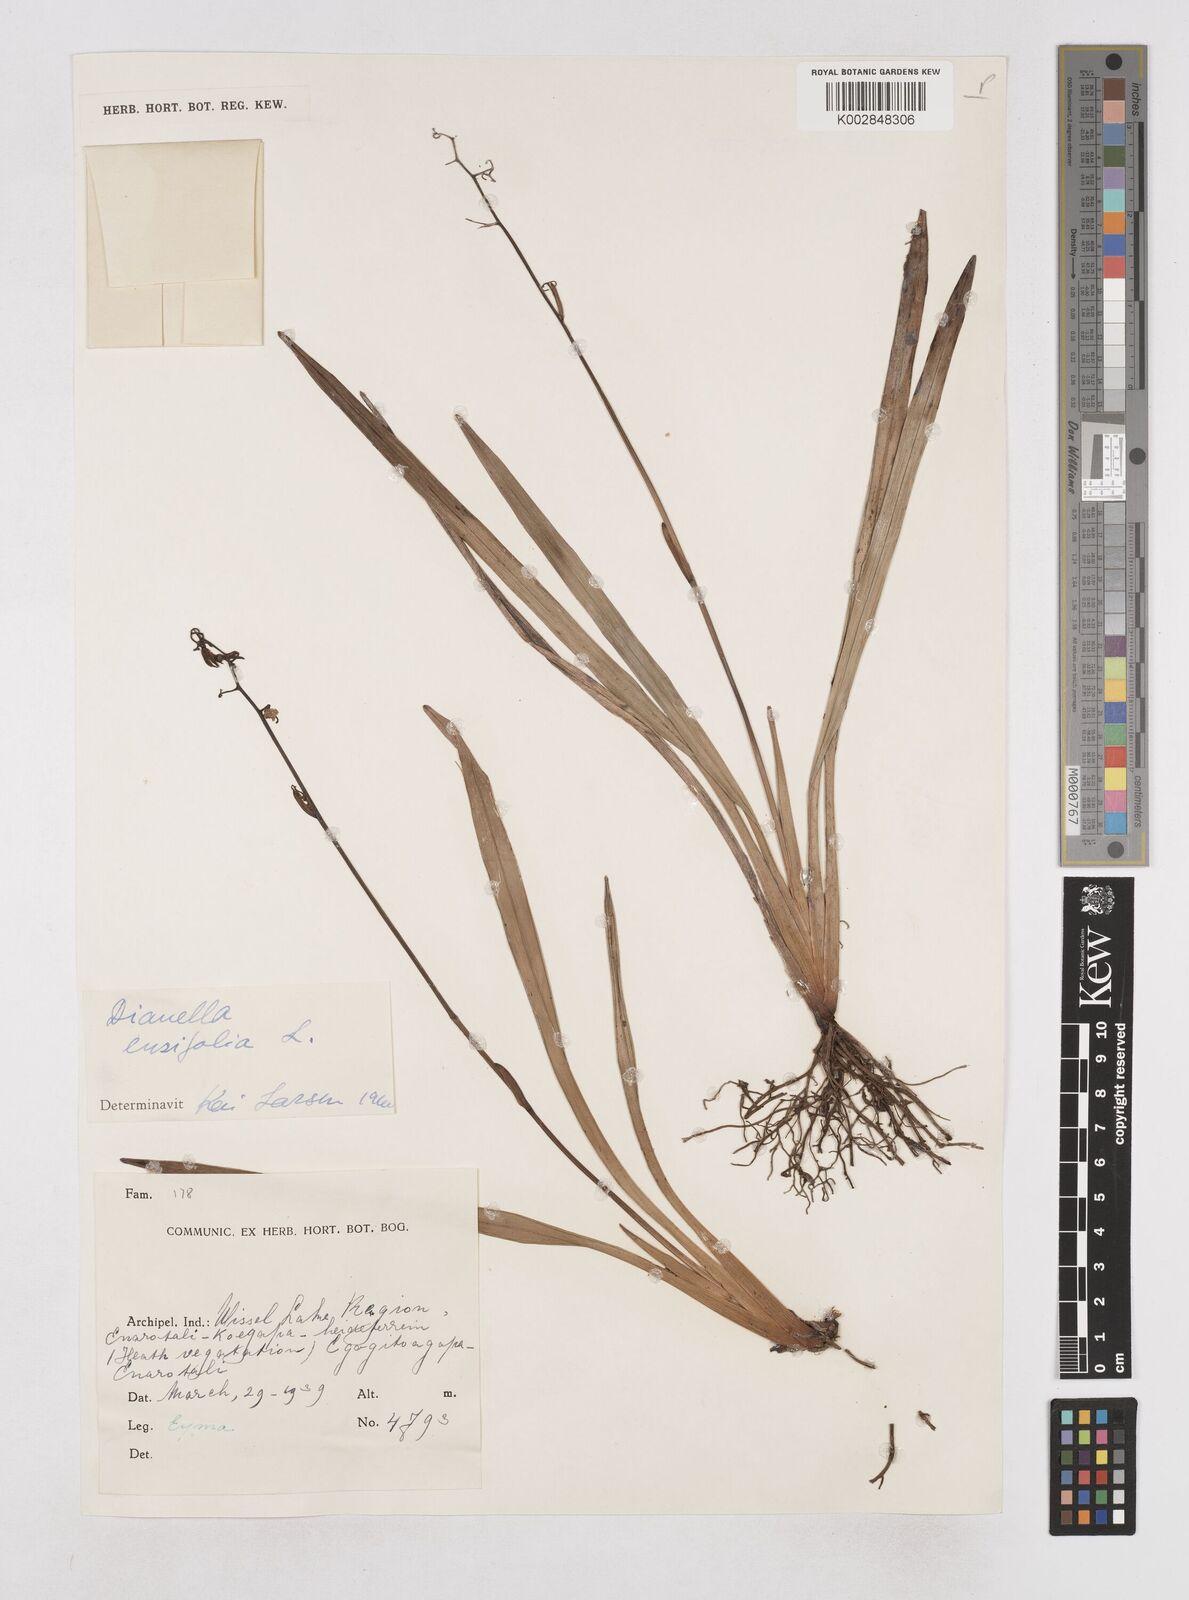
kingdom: Plantae
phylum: Tracheophyta
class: Liliopsida
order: Asparagales
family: Asphodelaceae
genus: Dianella
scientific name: Dianella ensifolia
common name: New zealand lilyplant
